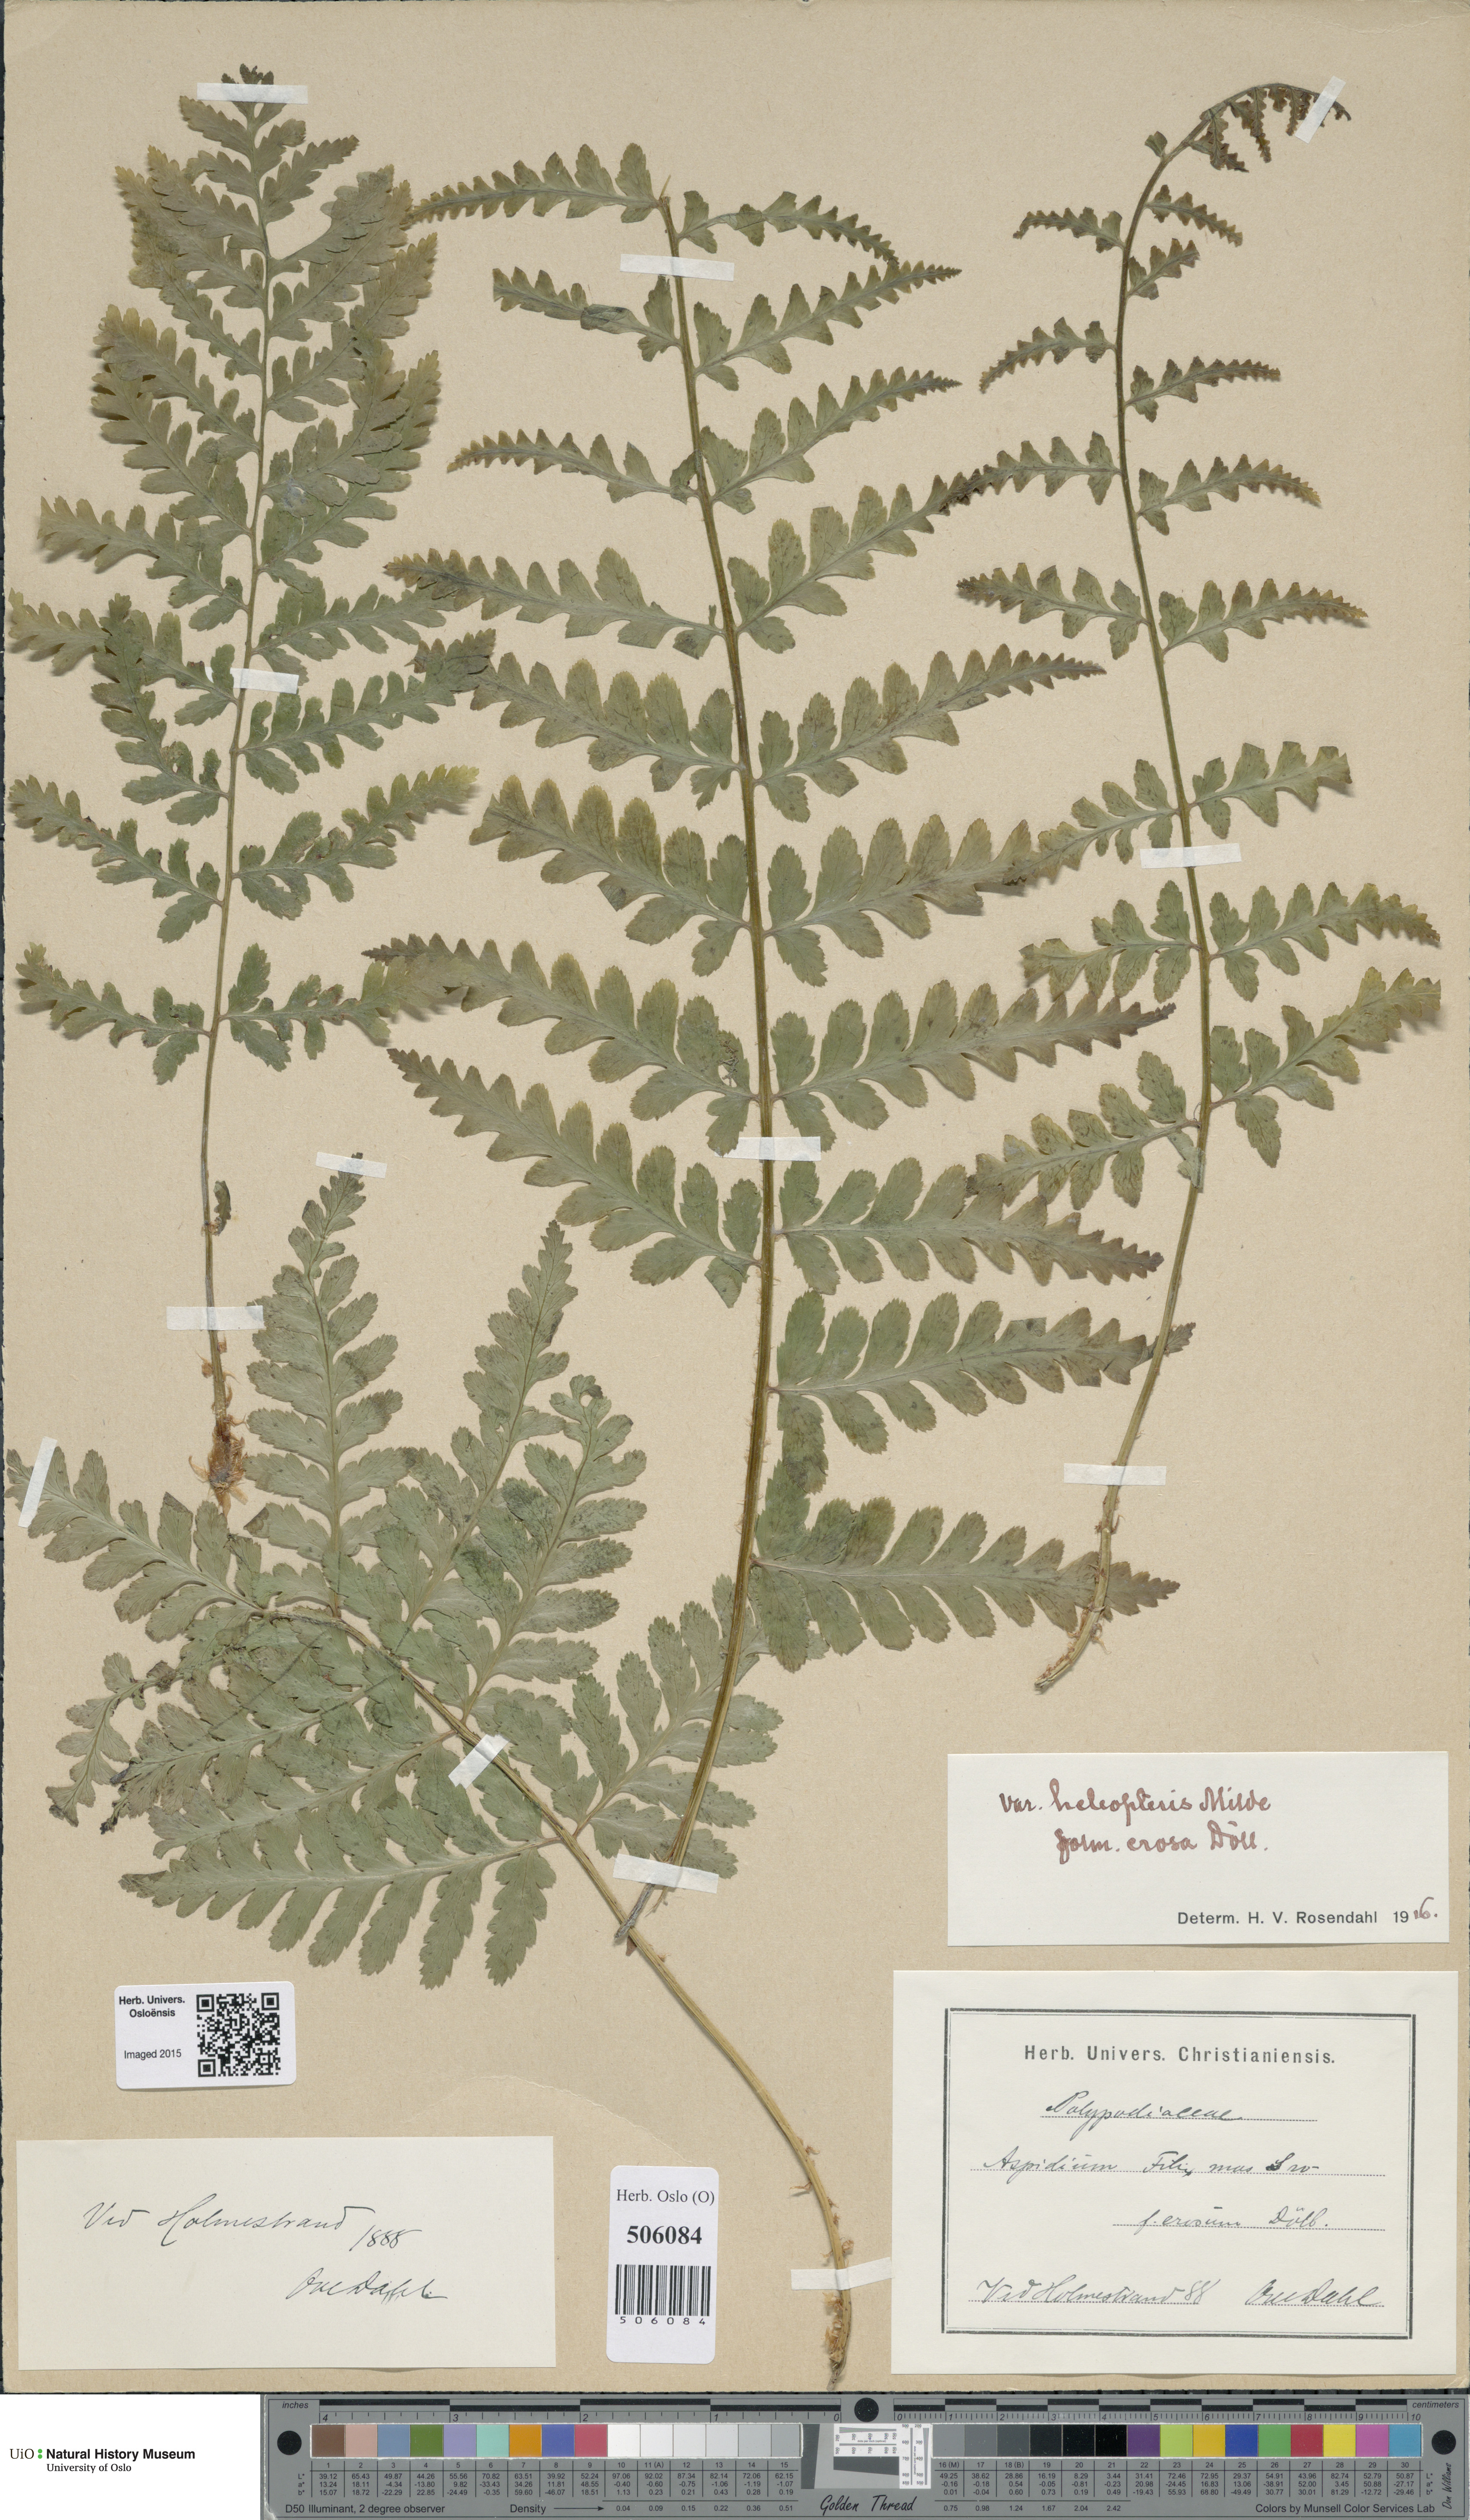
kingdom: Plantae
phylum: Tracheophyta
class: Polypodiopsida
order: Polypodiales
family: Dryopteridaceae
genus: Dryopteris
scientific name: Dryopteris filix-mas
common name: Male fern
